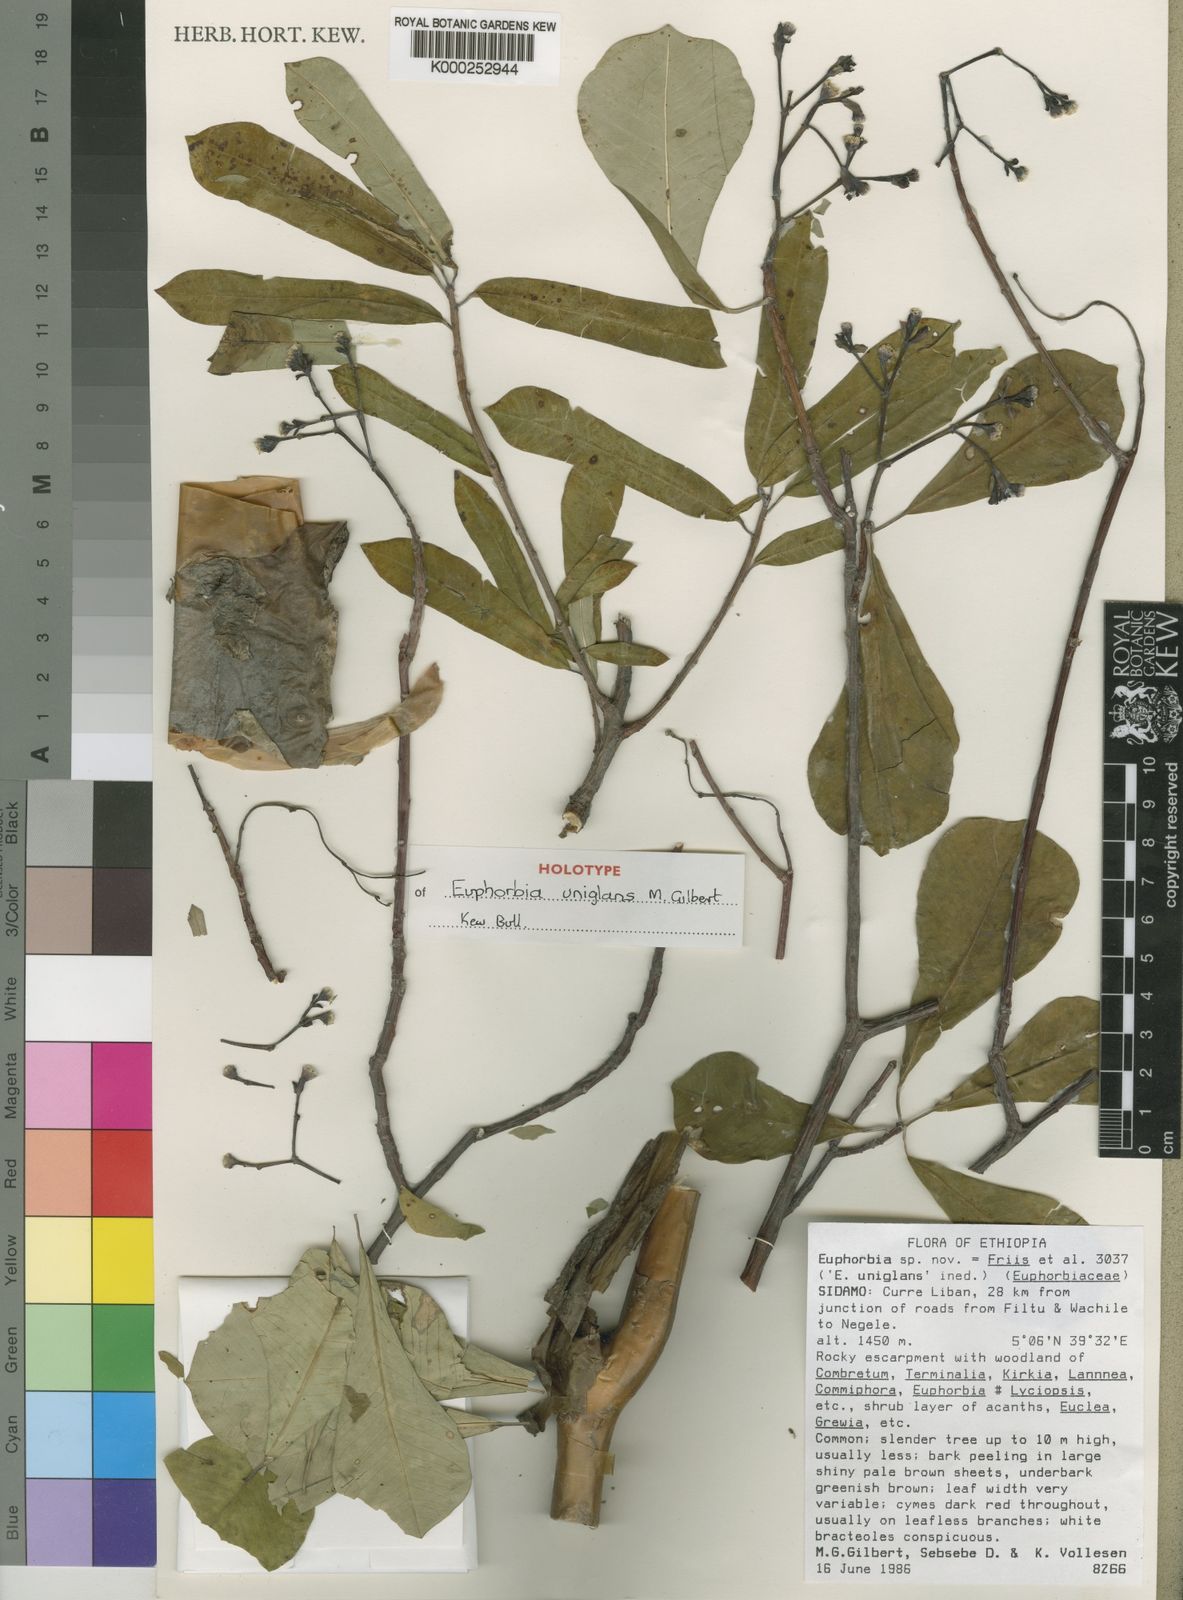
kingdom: Plantae
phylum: Tracheophyta
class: Magnoliopsida
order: Malpighiales
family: Euphorbiaceae
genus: Euphorbia
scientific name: Euphorbia uniglans
